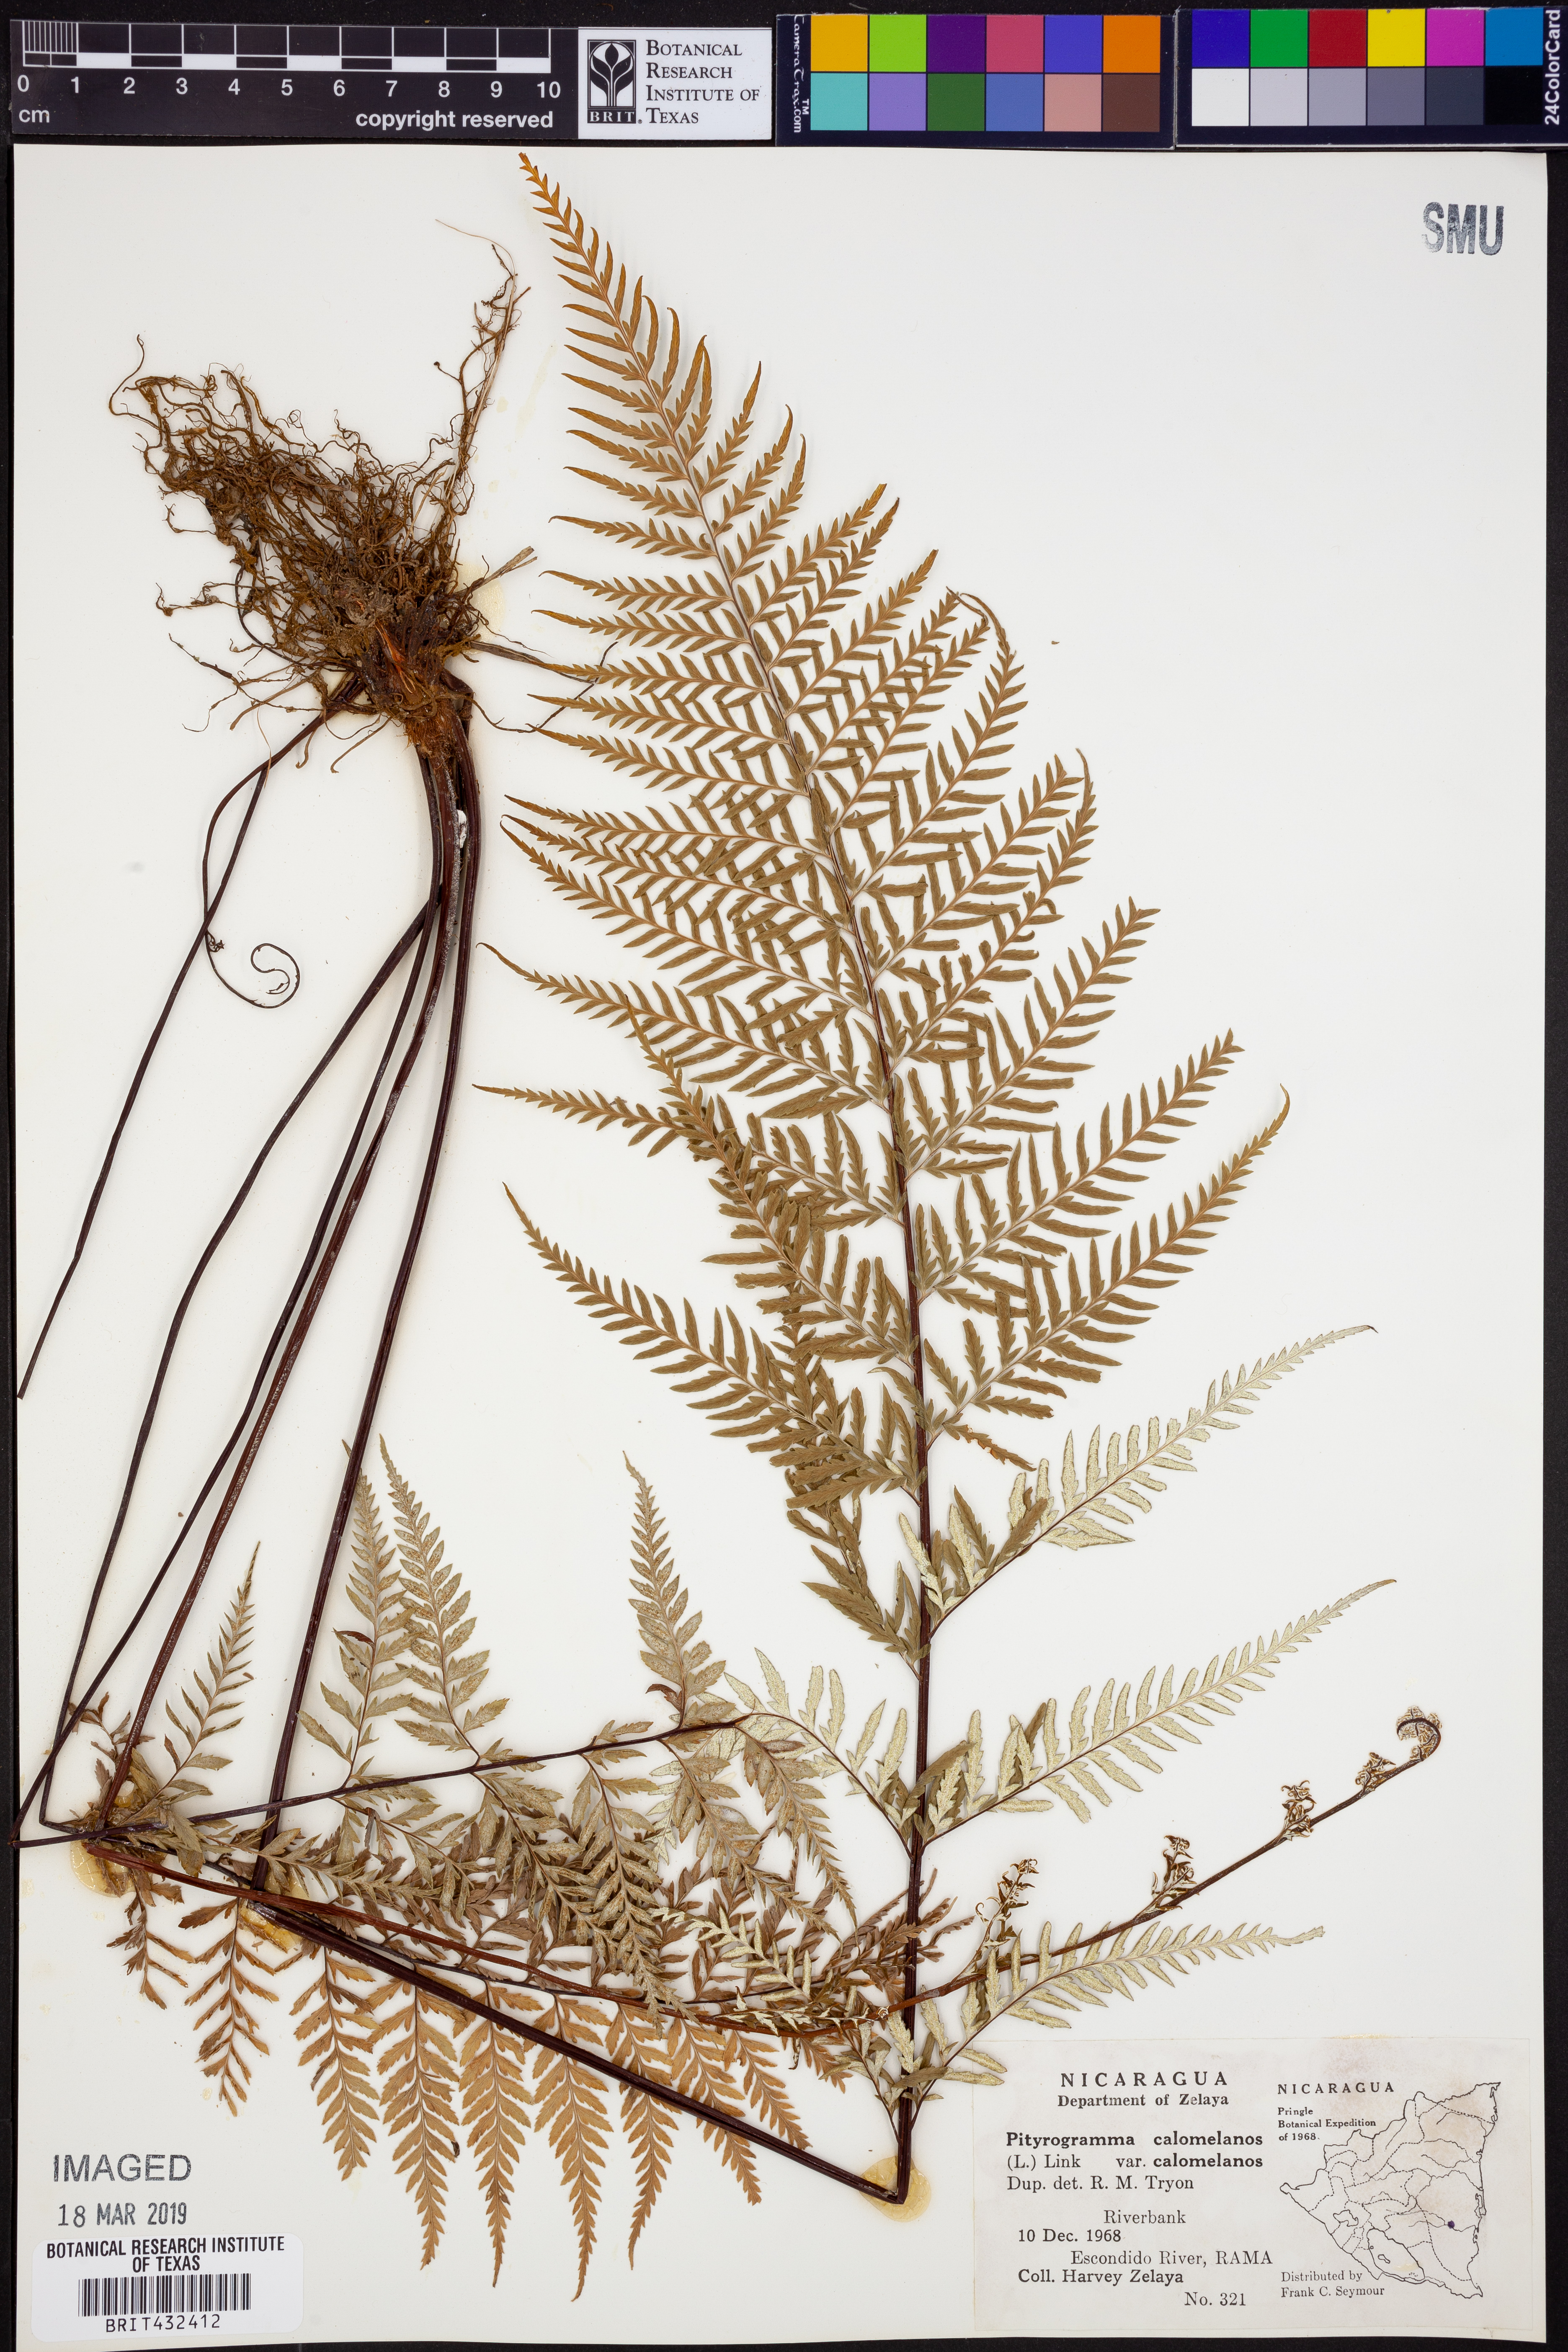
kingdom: Plantae
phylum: Tracheophyta
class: Polypodiopsida
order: Polypodiales
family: Pteridaceae
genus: Pityrogramma
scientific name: Pityrogramma calomelanos
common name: Dixie silverback fern
